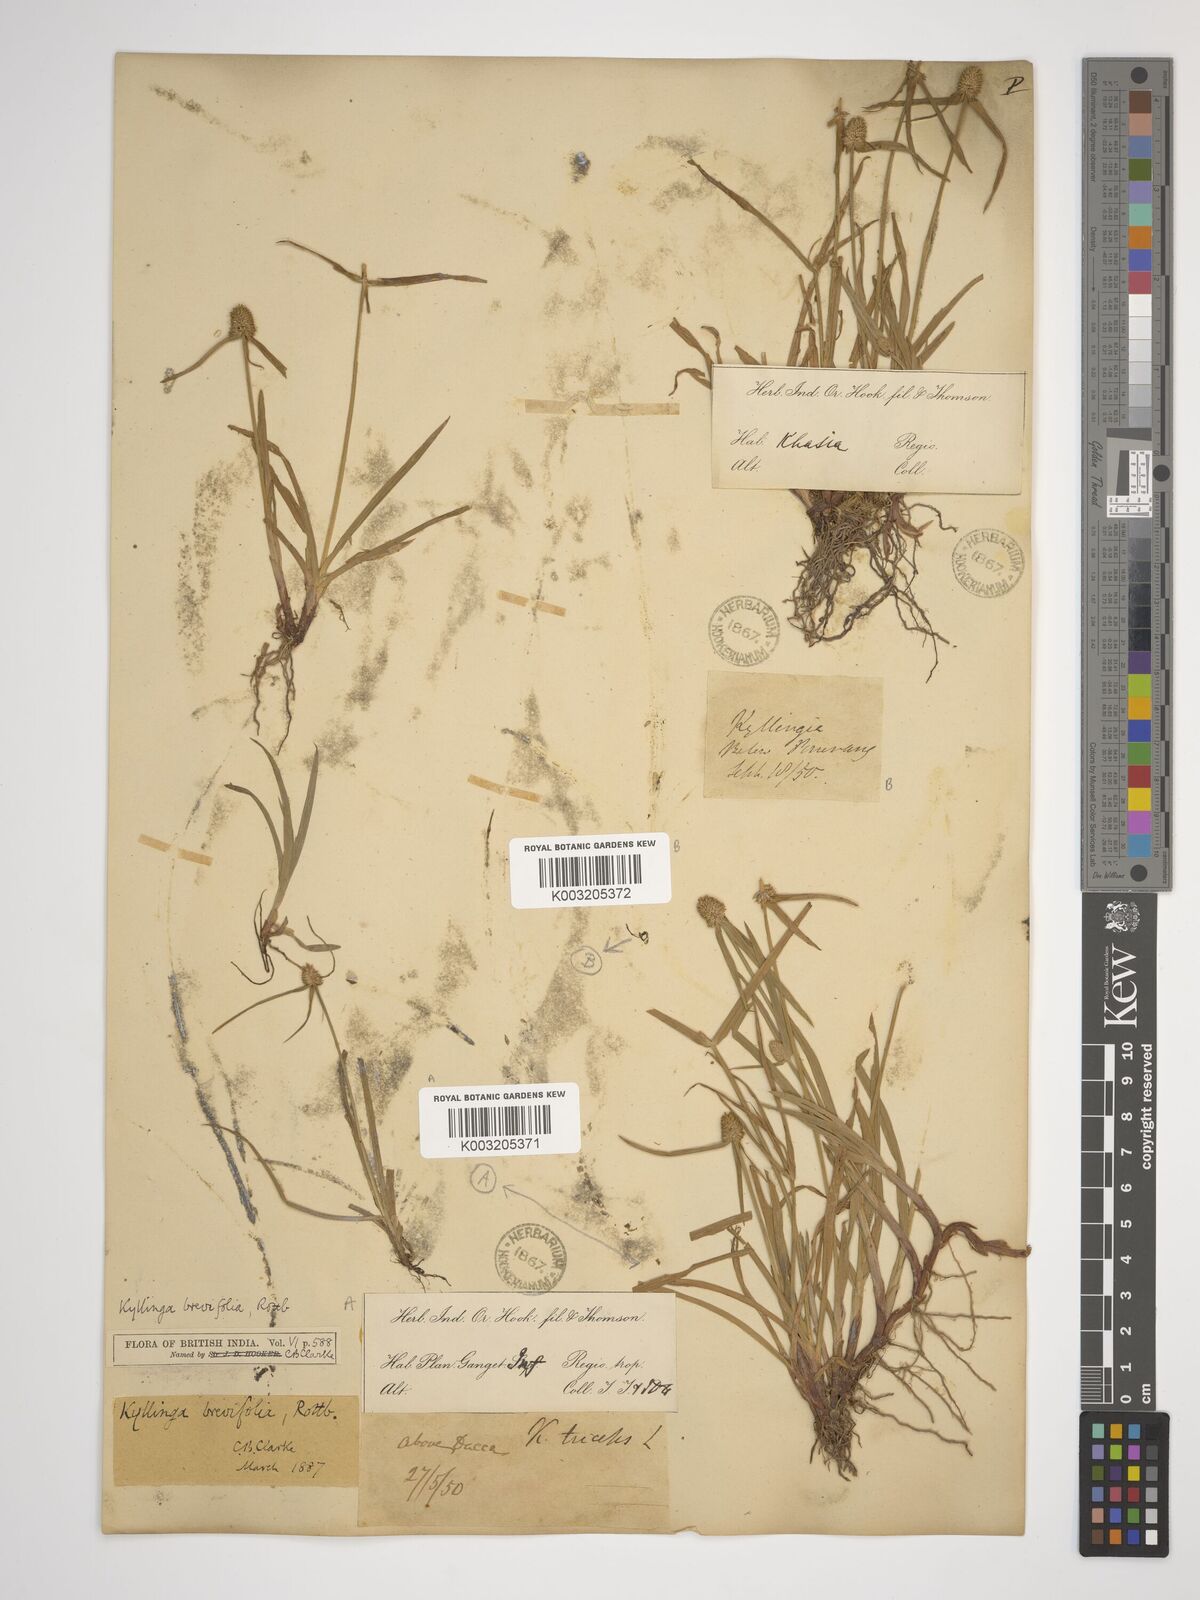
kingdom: Plantae
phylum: Tracheophyta
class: Liliopsida
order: Poales
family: Cyperaceae
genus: Cyperus
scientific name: Cyperus
